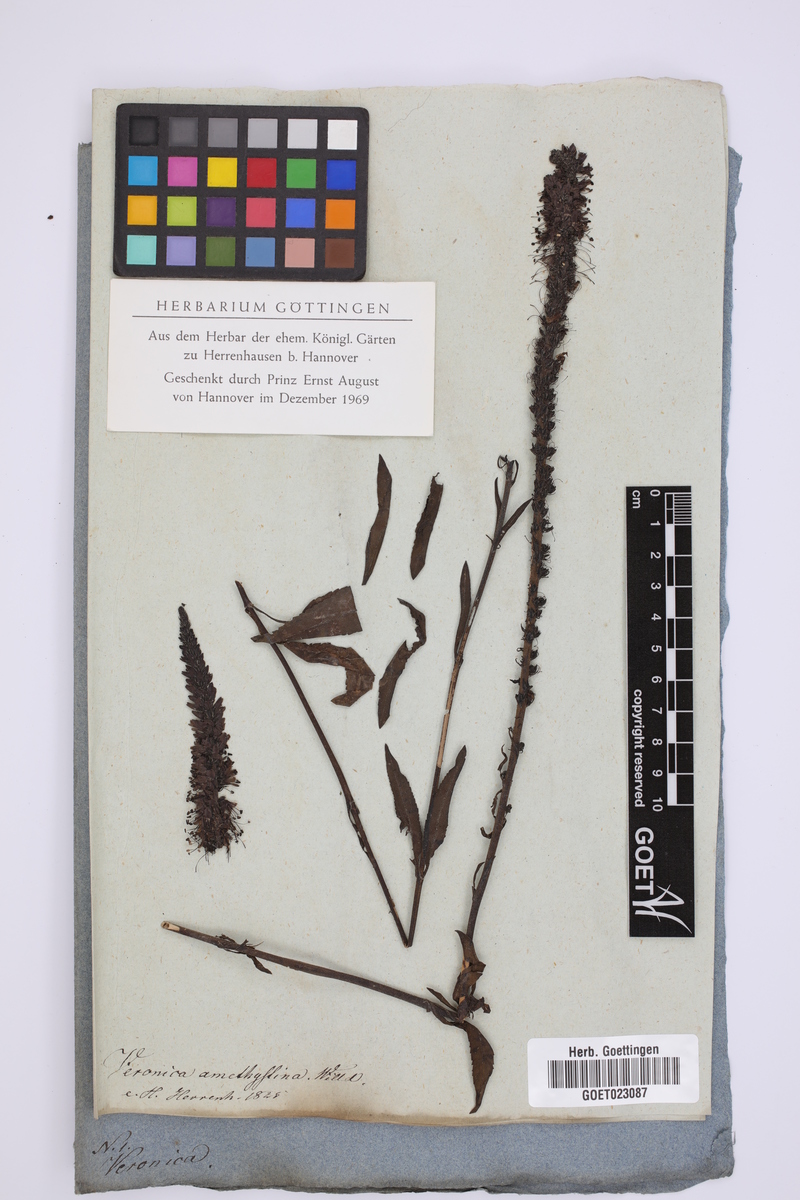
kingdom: Plantae
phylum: Tracheophyta
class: Magnoliopsida
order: Lamiales
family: Plantaginaceae
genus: Veronica
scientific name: Veronica spuria
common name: Bastard speedwell
